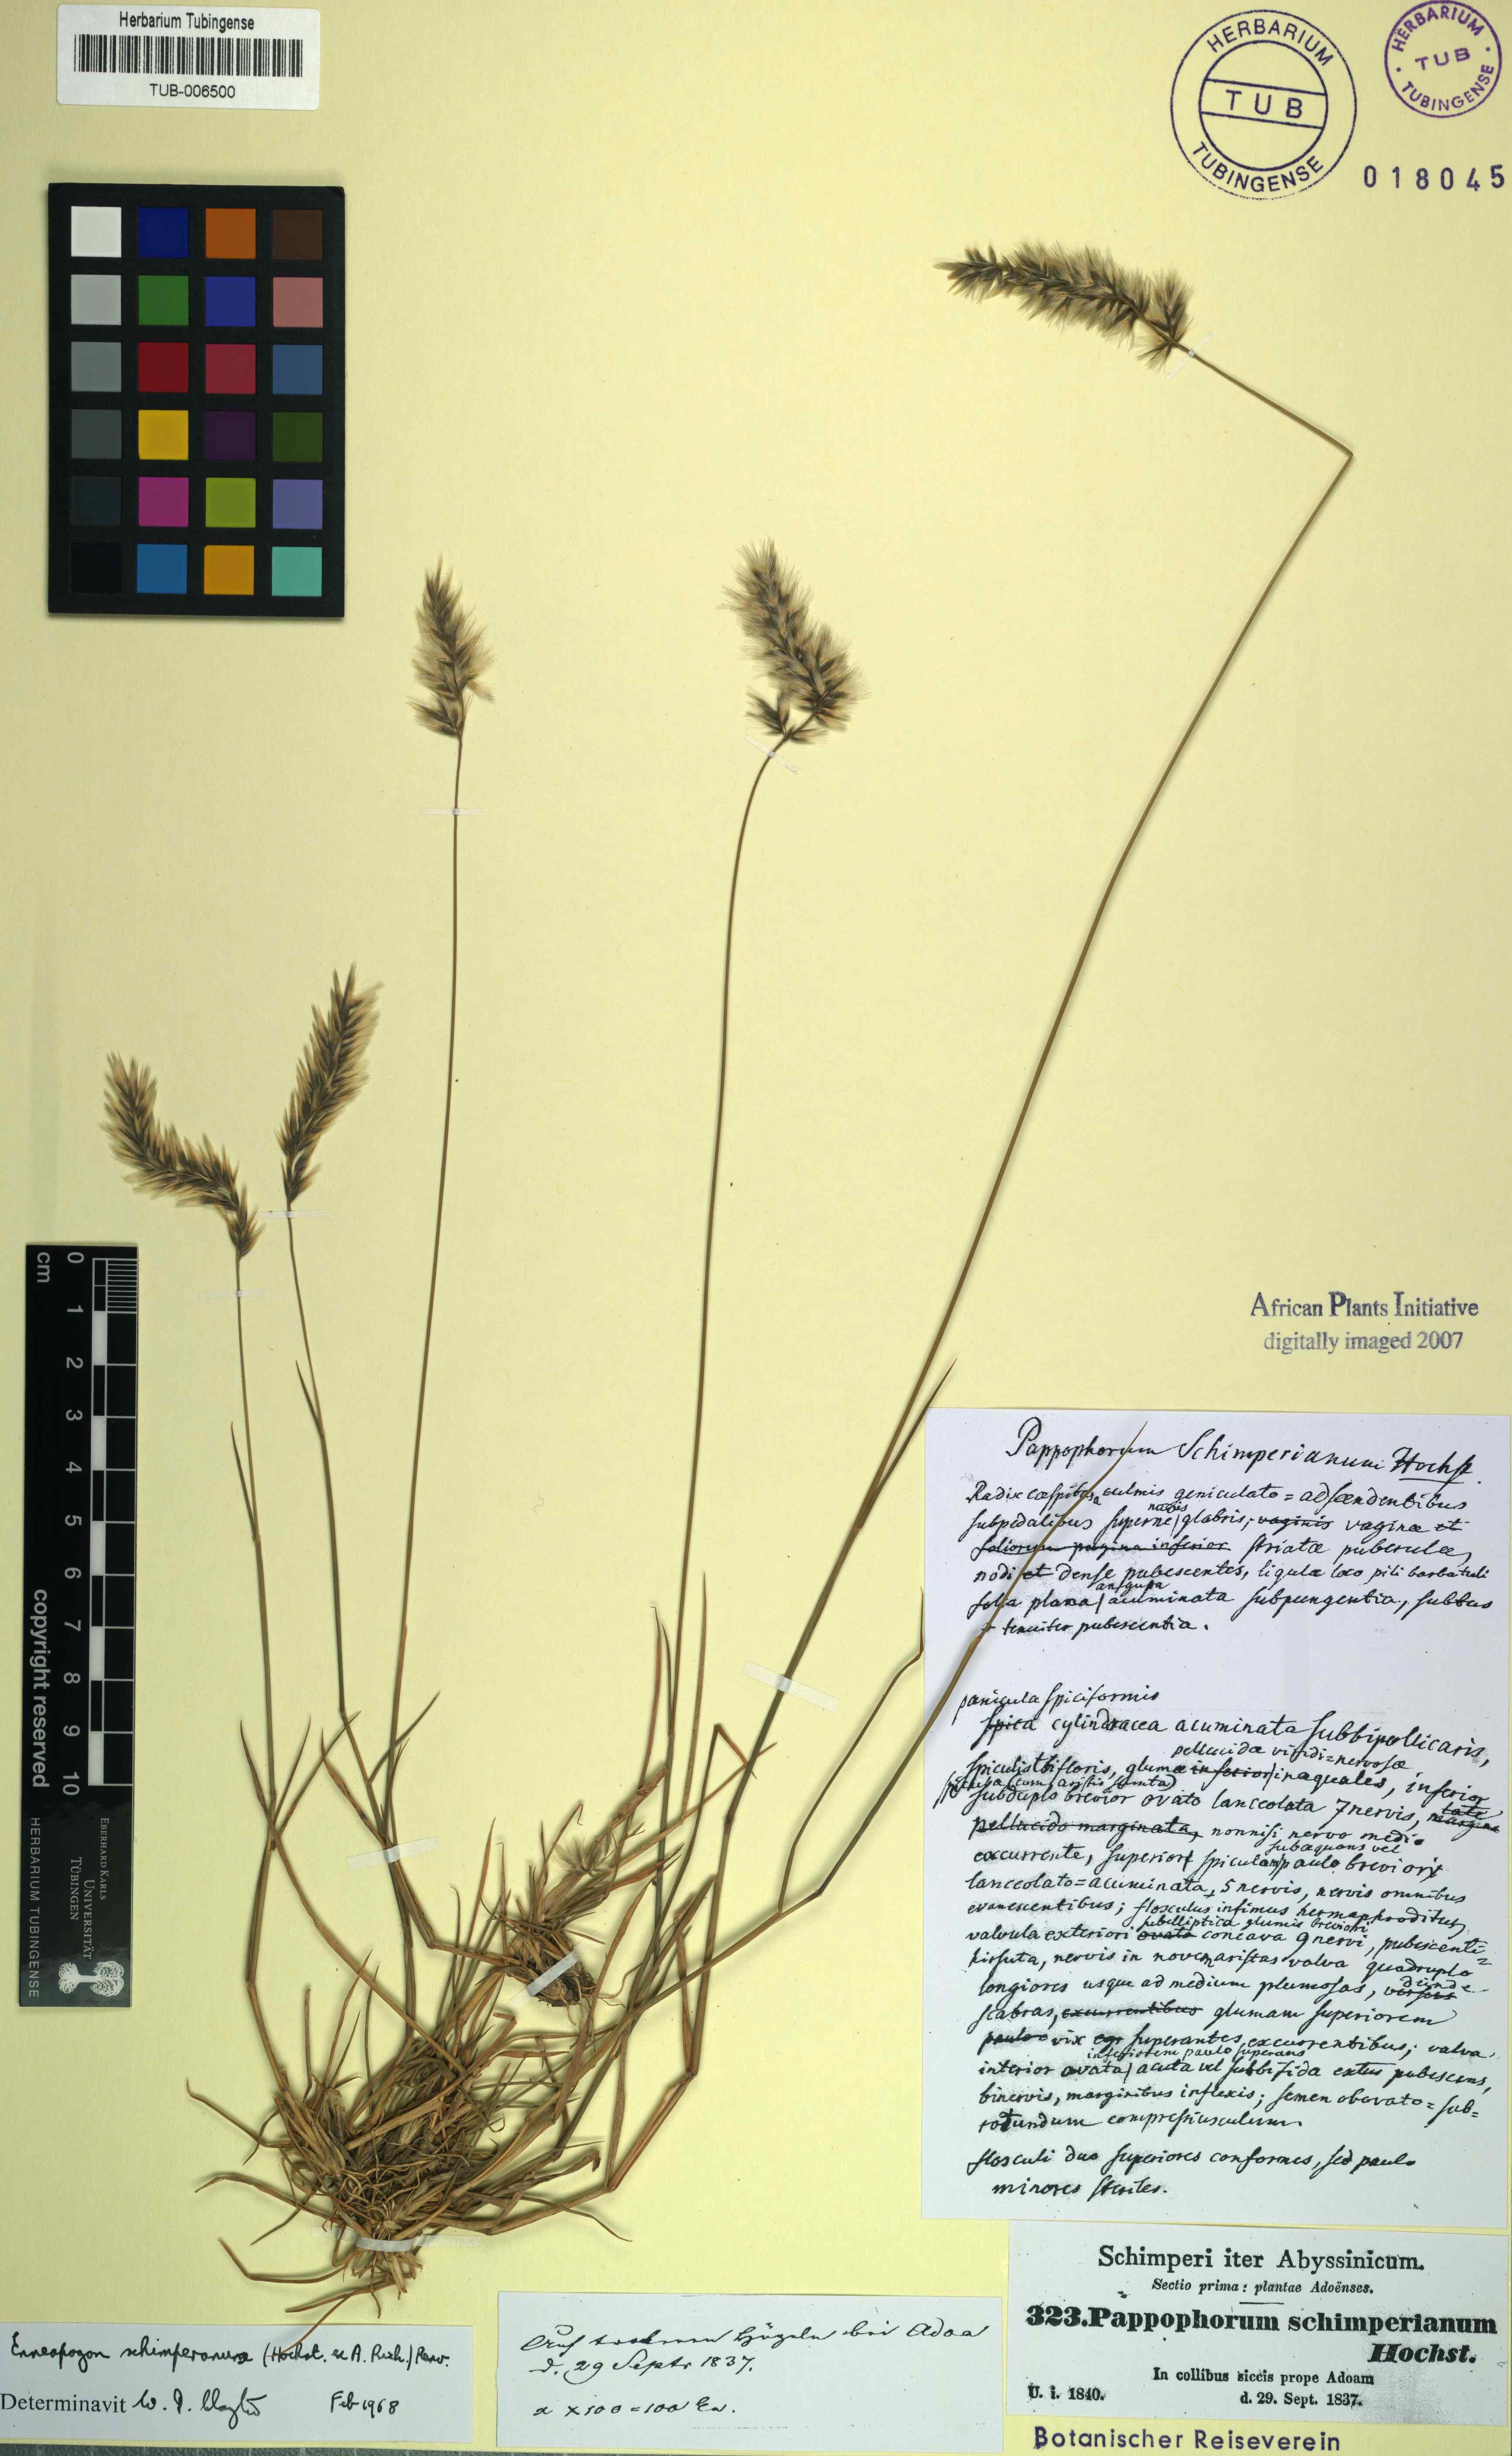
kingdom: Plantae
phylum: Tracheophyta
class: Liliopsida
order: Poales
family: Poaceae
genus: Pappophorum
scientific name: Pappophorum schimperianum
